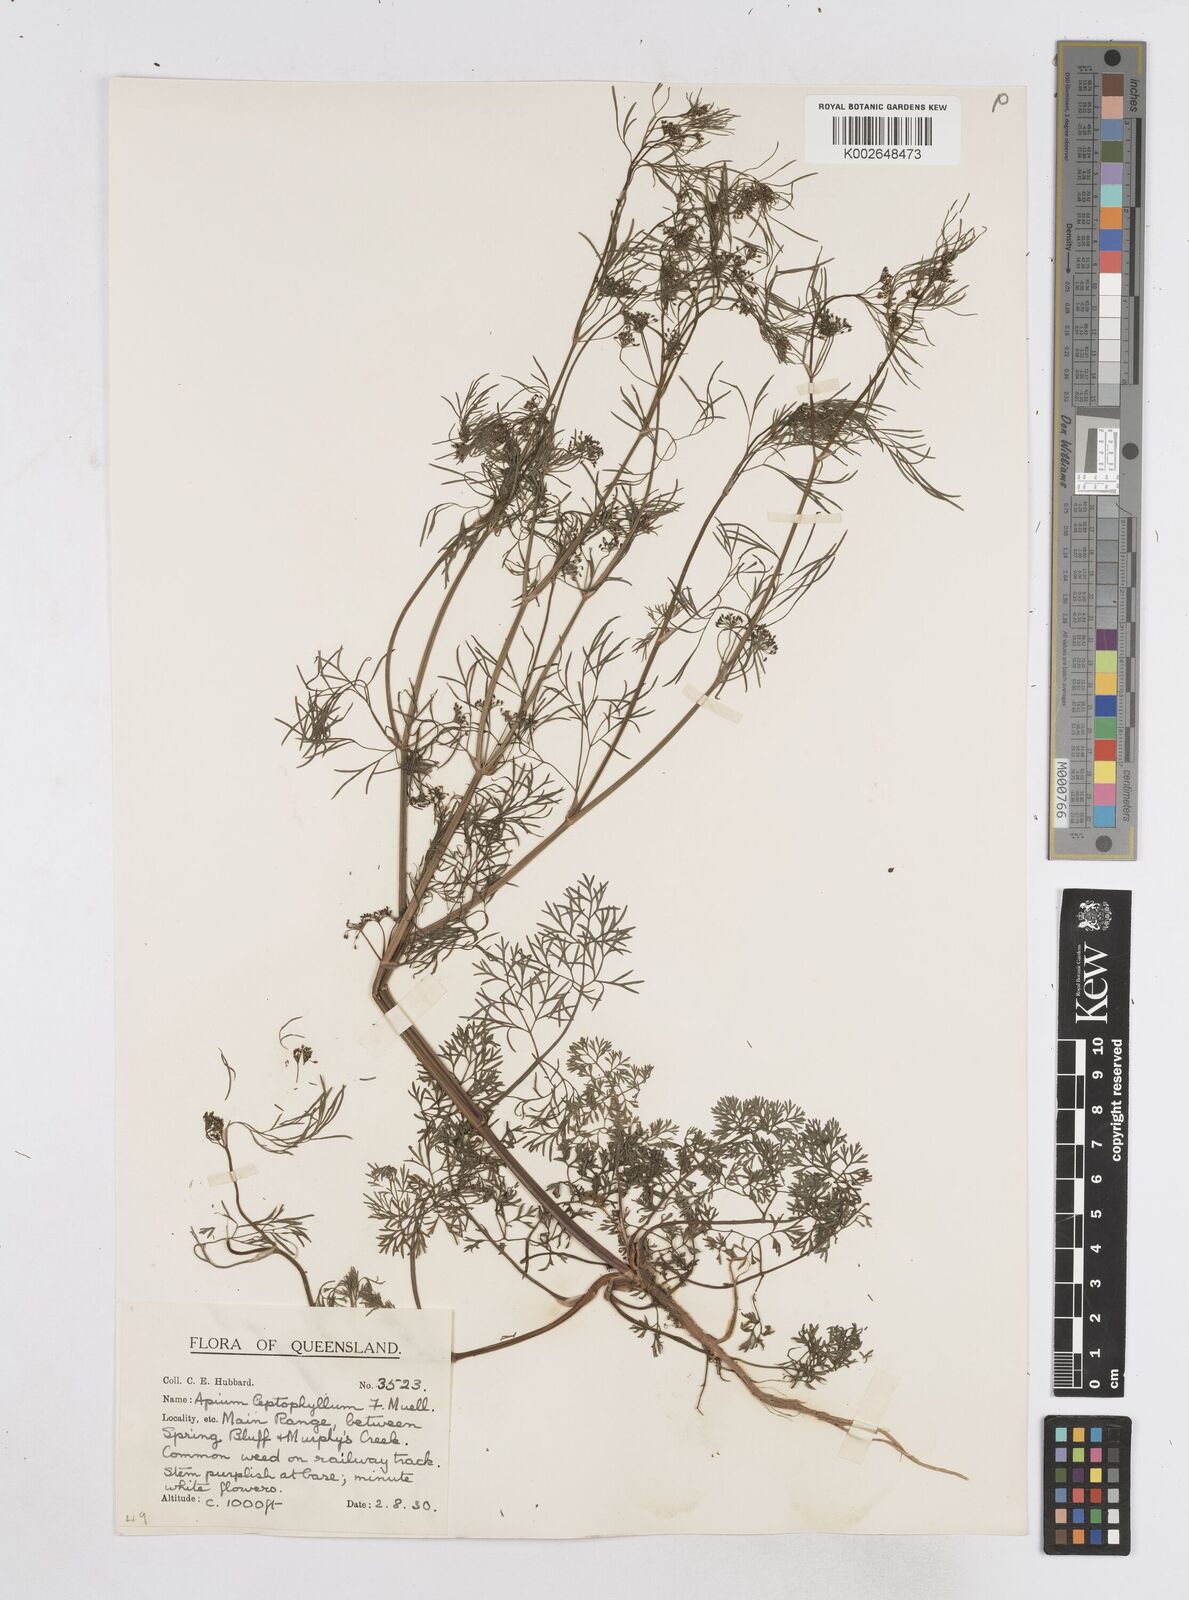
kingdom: Plantae
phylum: Tracheophyta
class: Magnoliopsida
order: Apiales
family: Apiaceae
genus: Cyclospermum
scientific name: Cyclospermum leptophyllum
